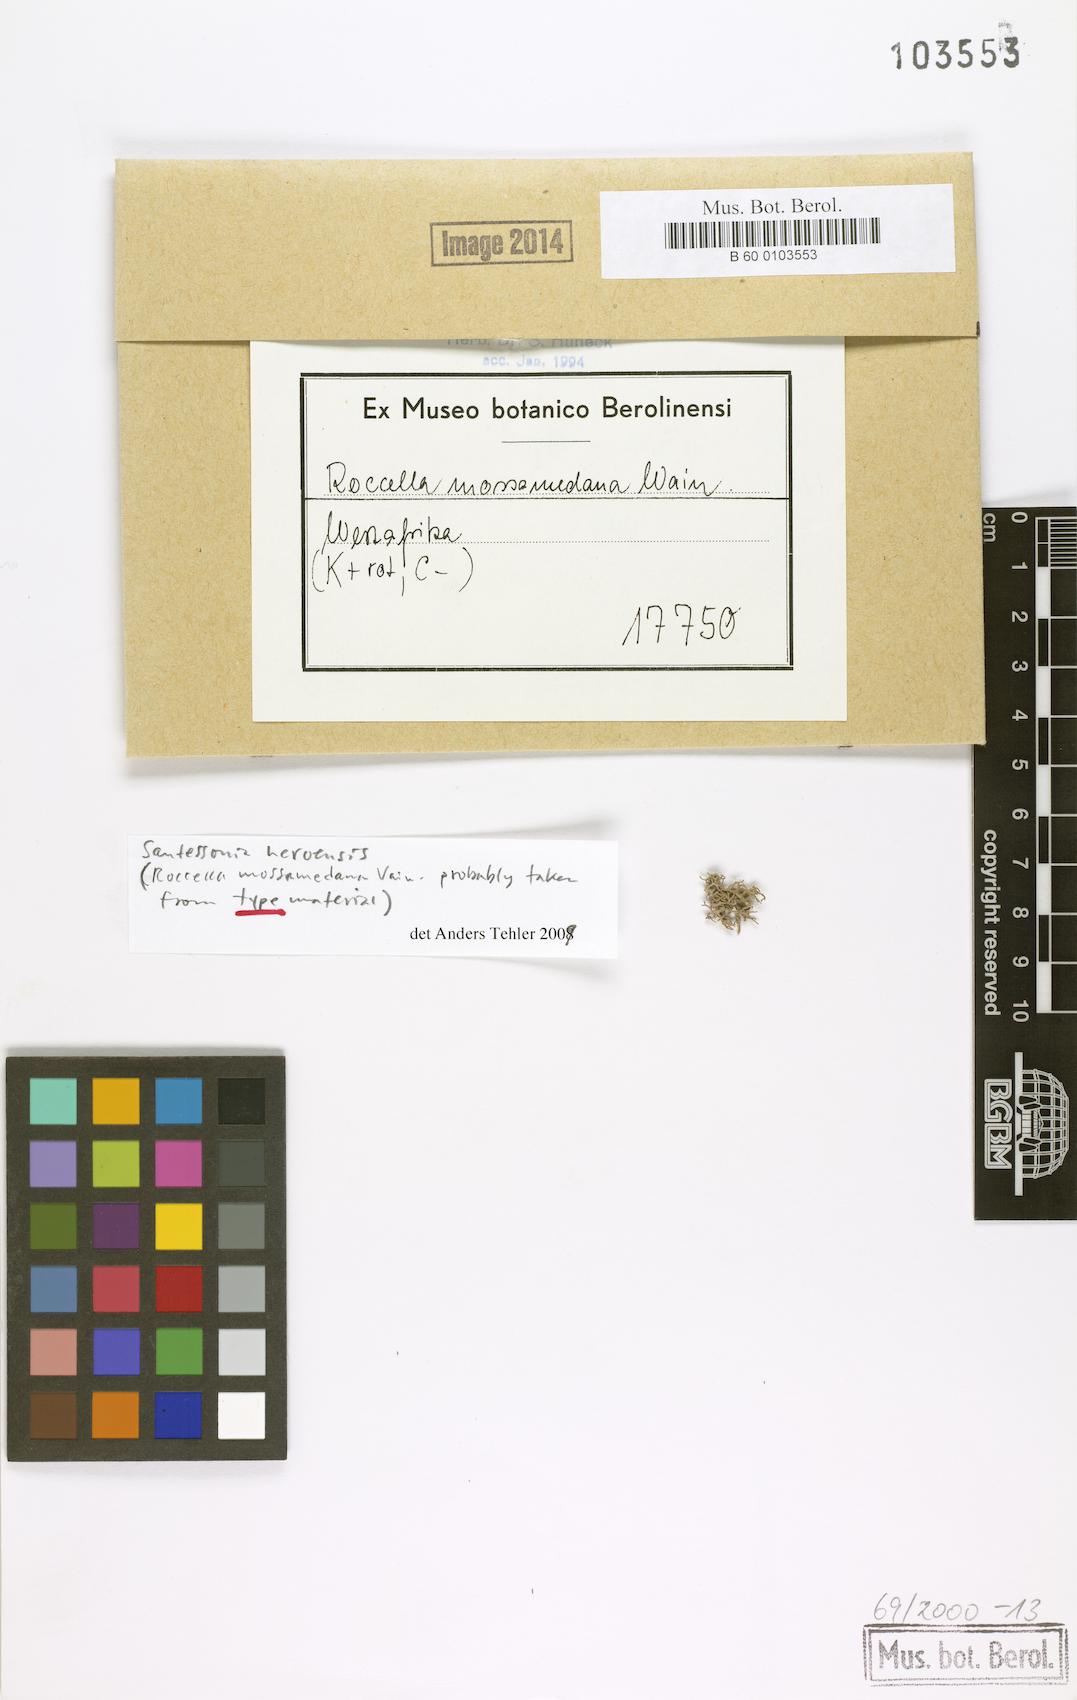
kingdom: Fungi
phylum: Ascomycota
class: Arthoniomycetes
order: Arthoniales
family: Roccellaceae
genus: Roccella
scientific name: Roccella
